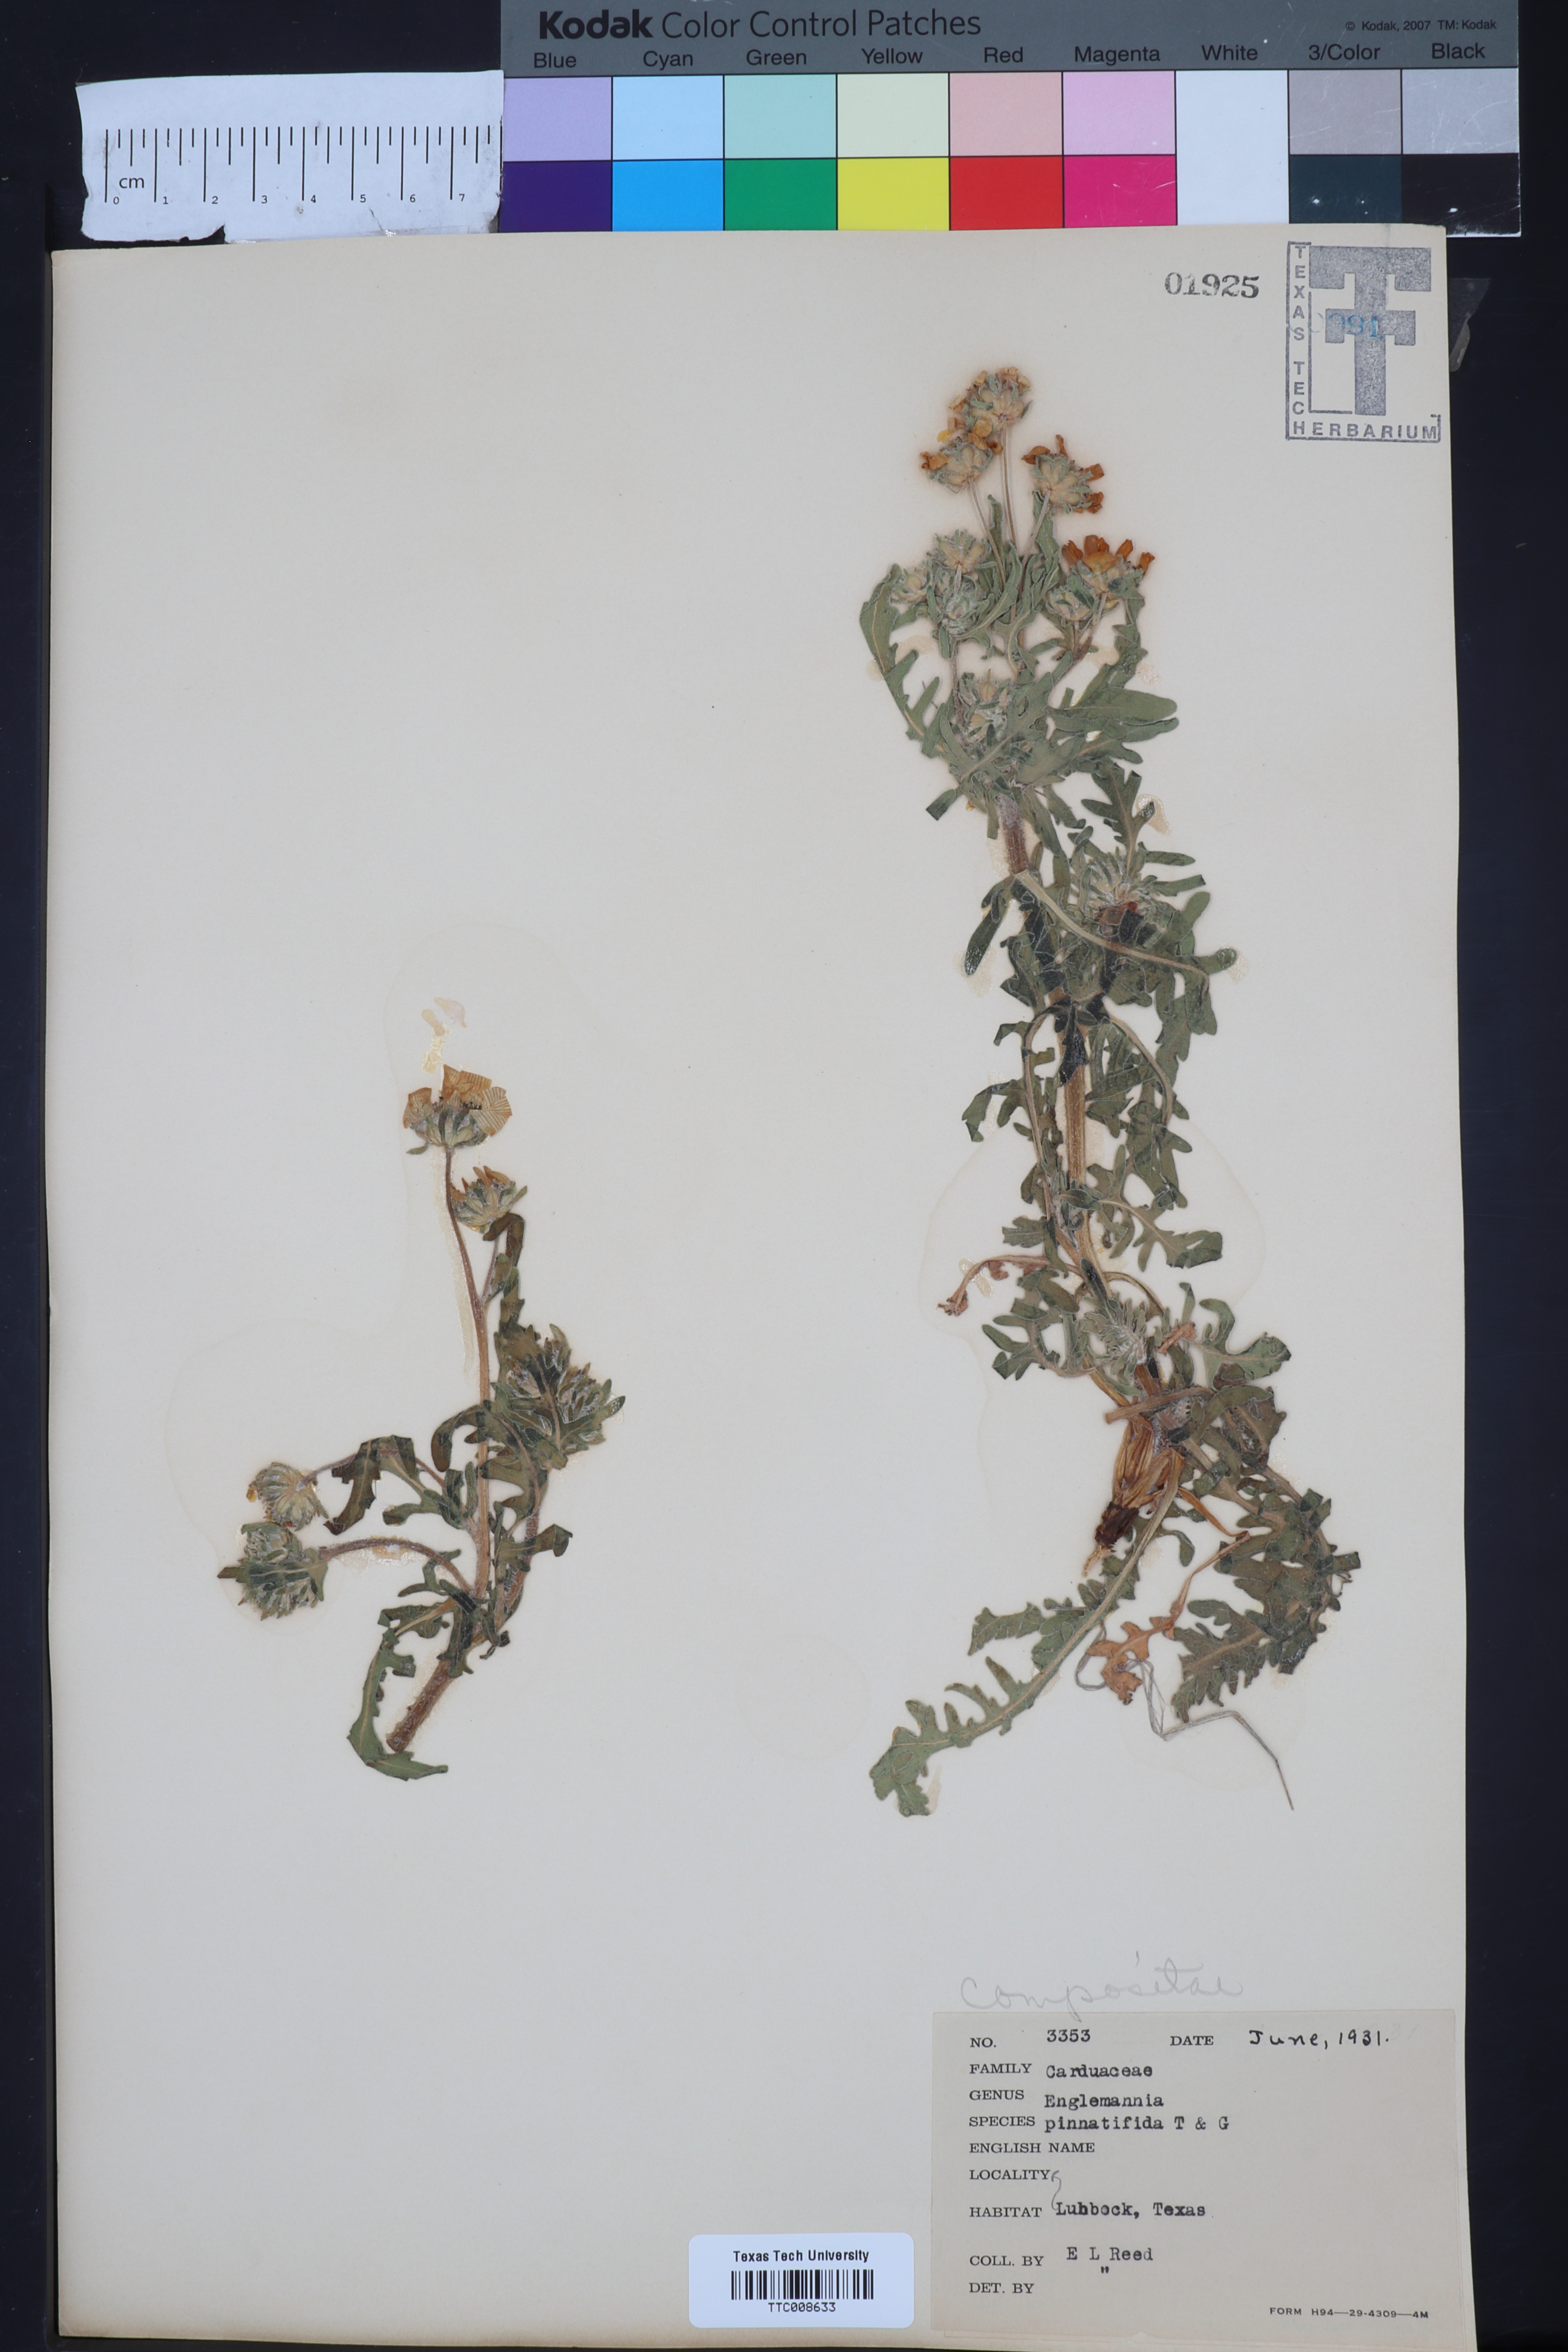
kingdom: Plantae
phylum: Tracheophyta
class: Magnoliopsida
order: Asterales
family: Asteraceae
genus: Engelmannia
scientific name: Engelmannia peristenia
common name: Engelmann's daisy
